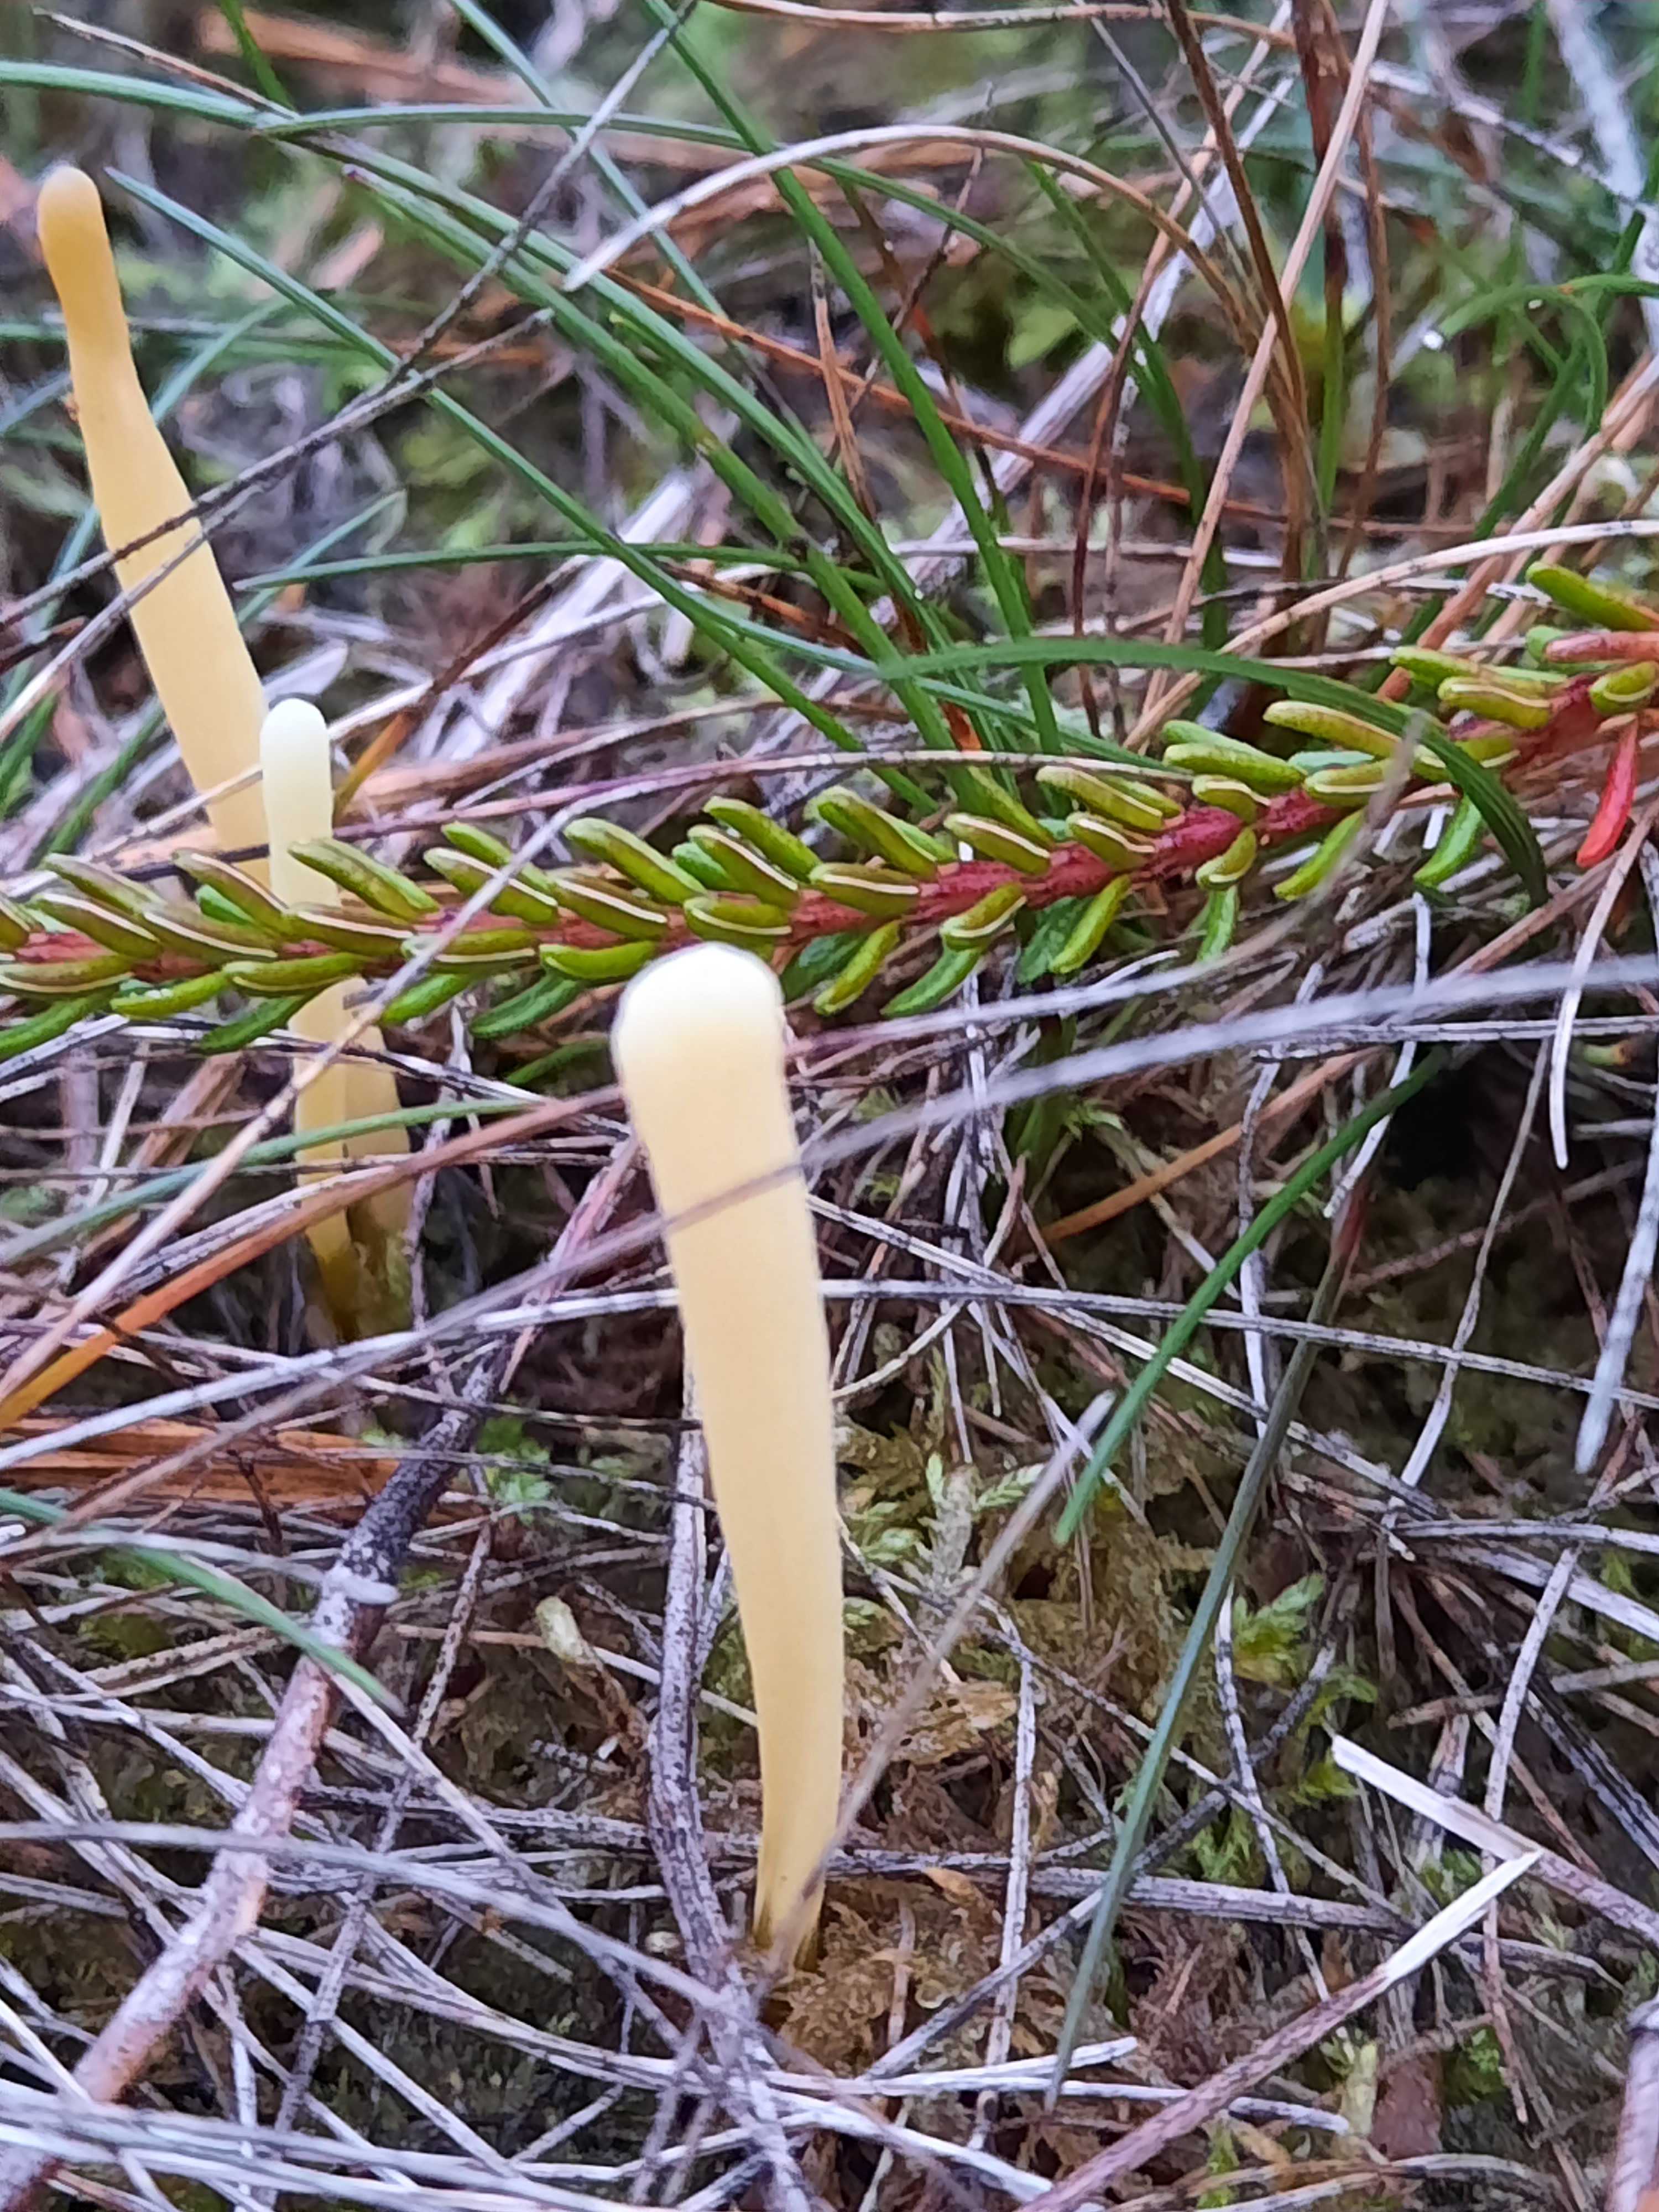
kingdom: Fungi
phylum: Basidiomycota
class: Agaricomycetes
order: Agaricales
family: Clavariaceae
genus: Clavaria
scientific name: Clavaria argillacea
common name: lerfarvet køllesvamp
